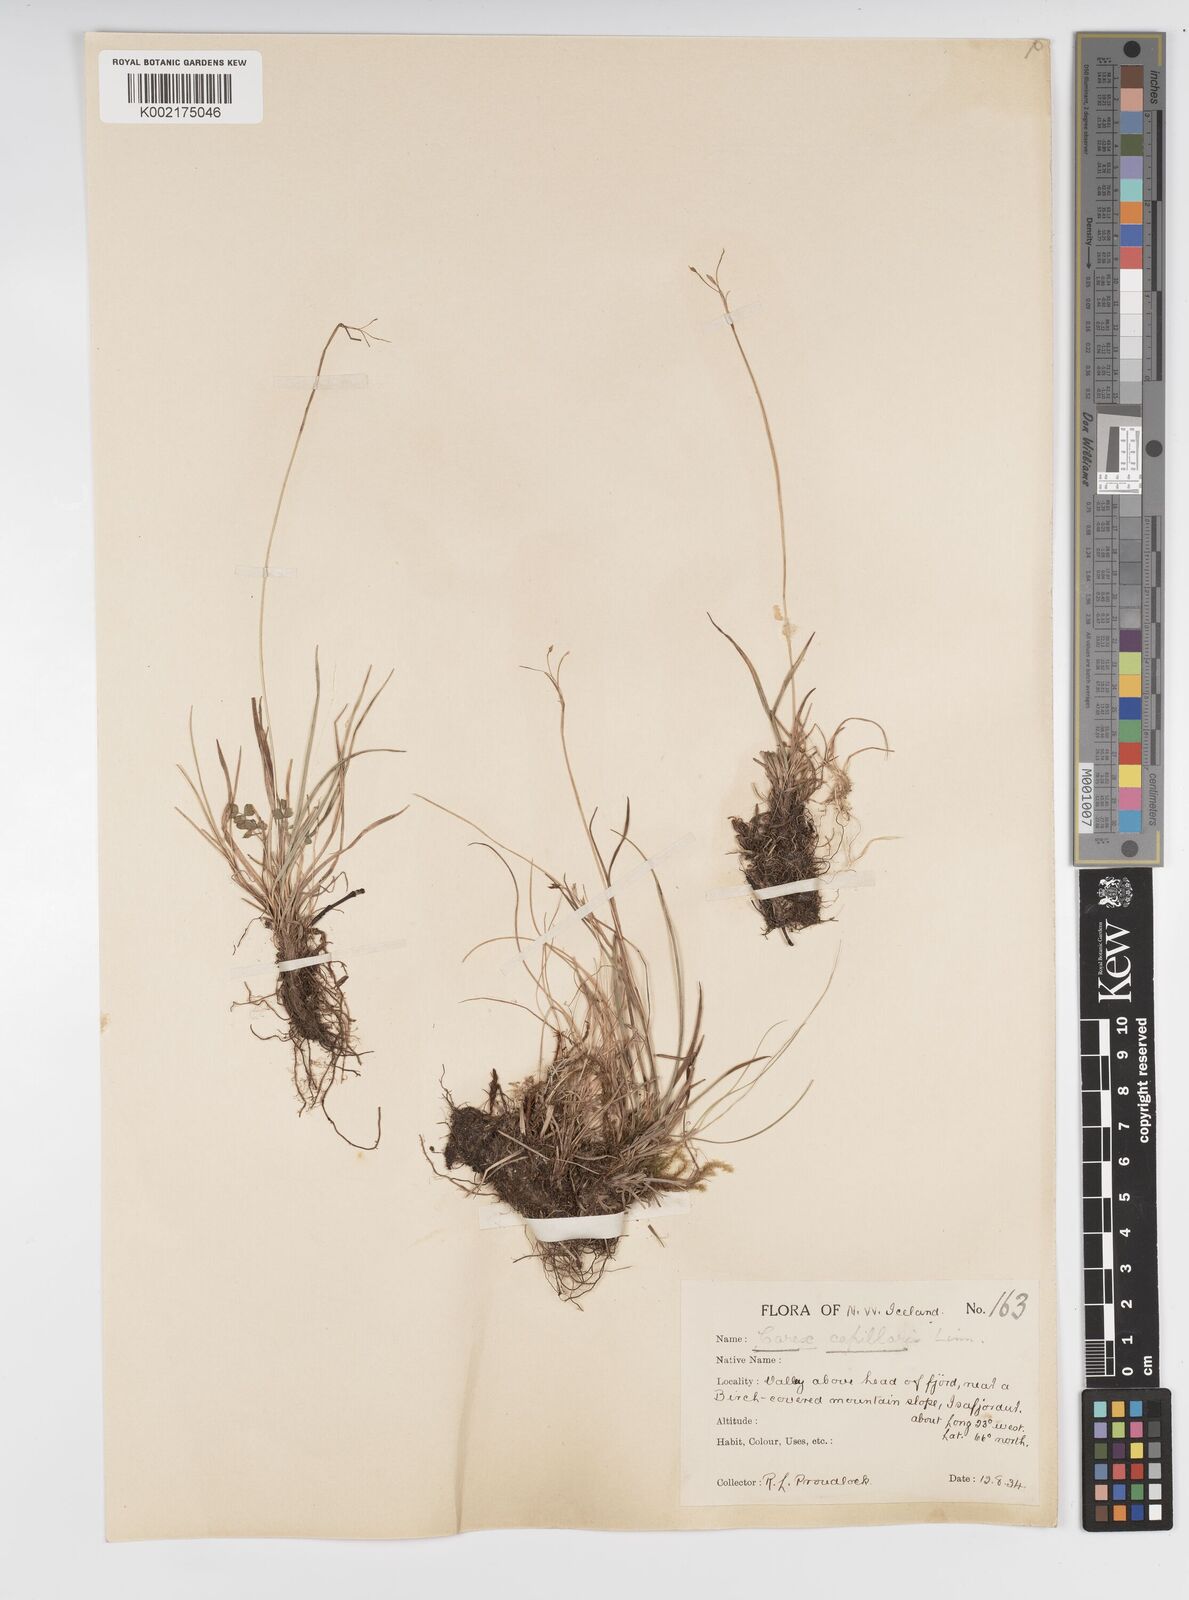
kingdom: Plantae
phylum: Tracheophyta
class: Liliopsida
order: Poales
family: Cyperaceae
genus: Carex
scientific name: Carex capillaris
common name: Hair sedge
